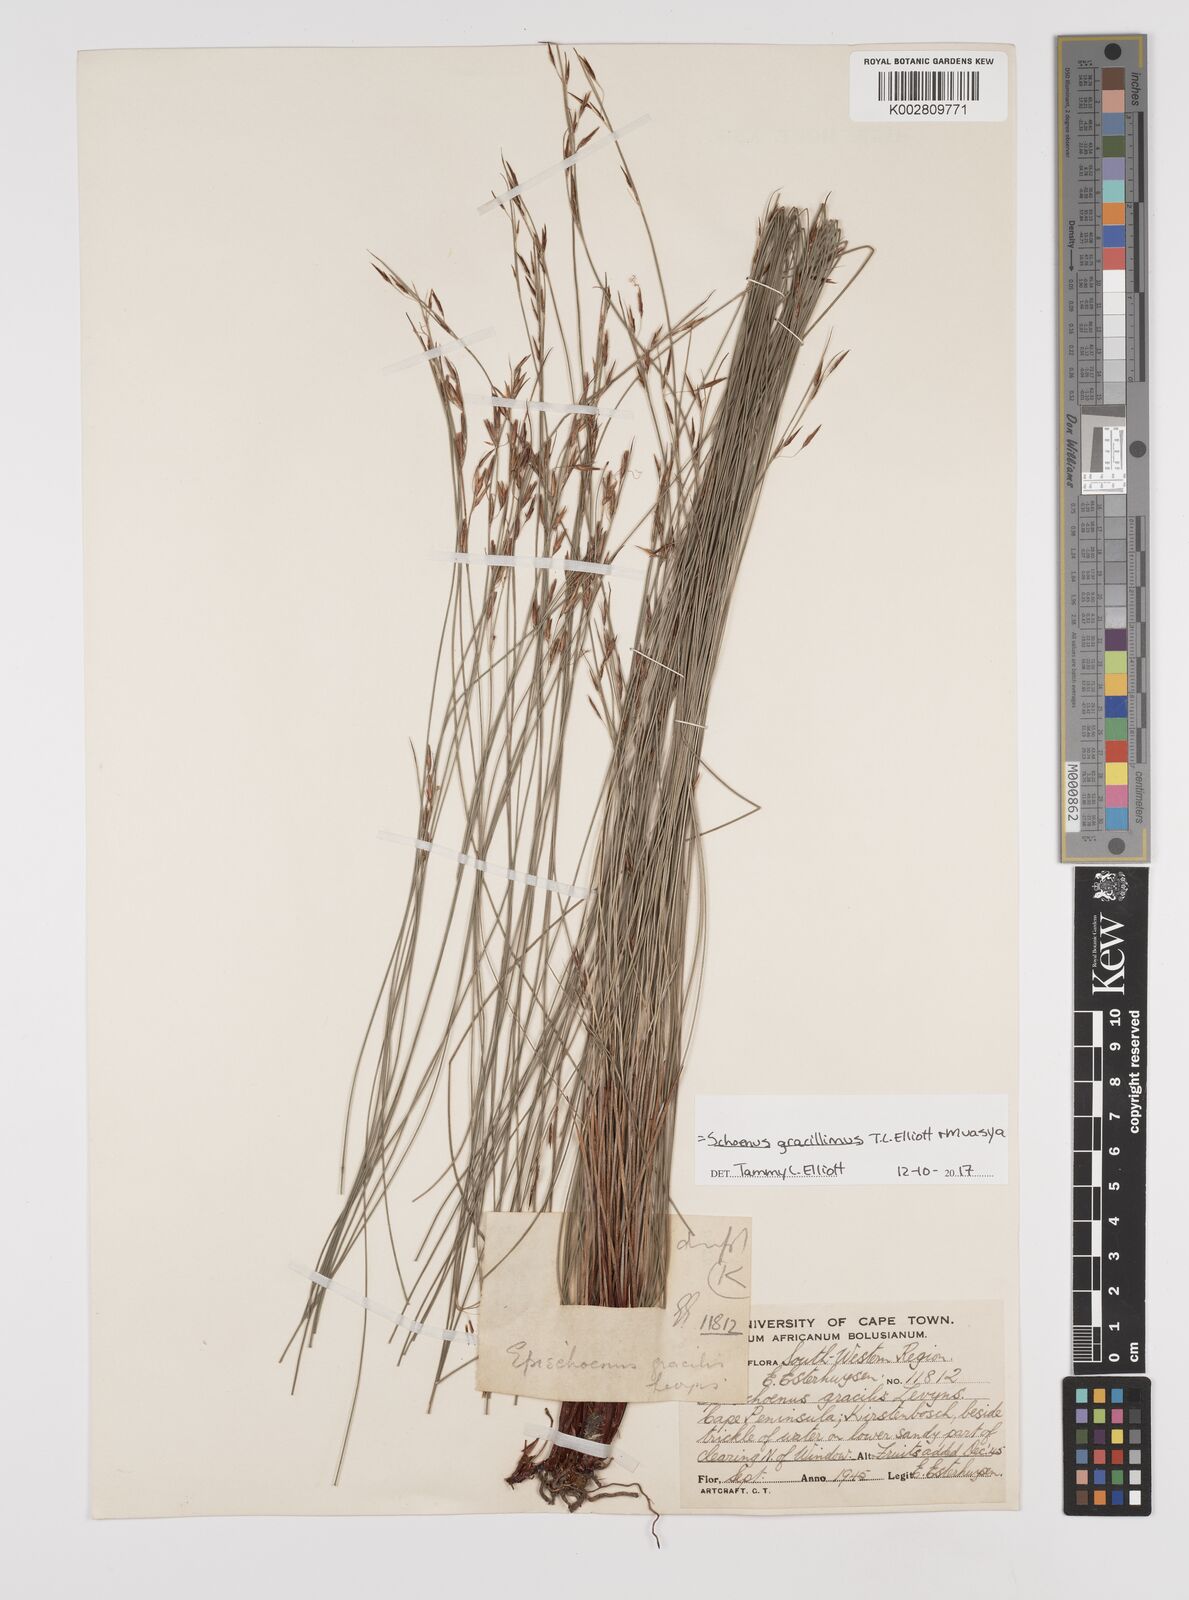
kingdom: Plantae
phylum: Tracheophyta
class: Liliopsida
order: Poales
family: Cyperaceae
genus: Rhynchospora
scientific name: Rhynchospora racemosa
